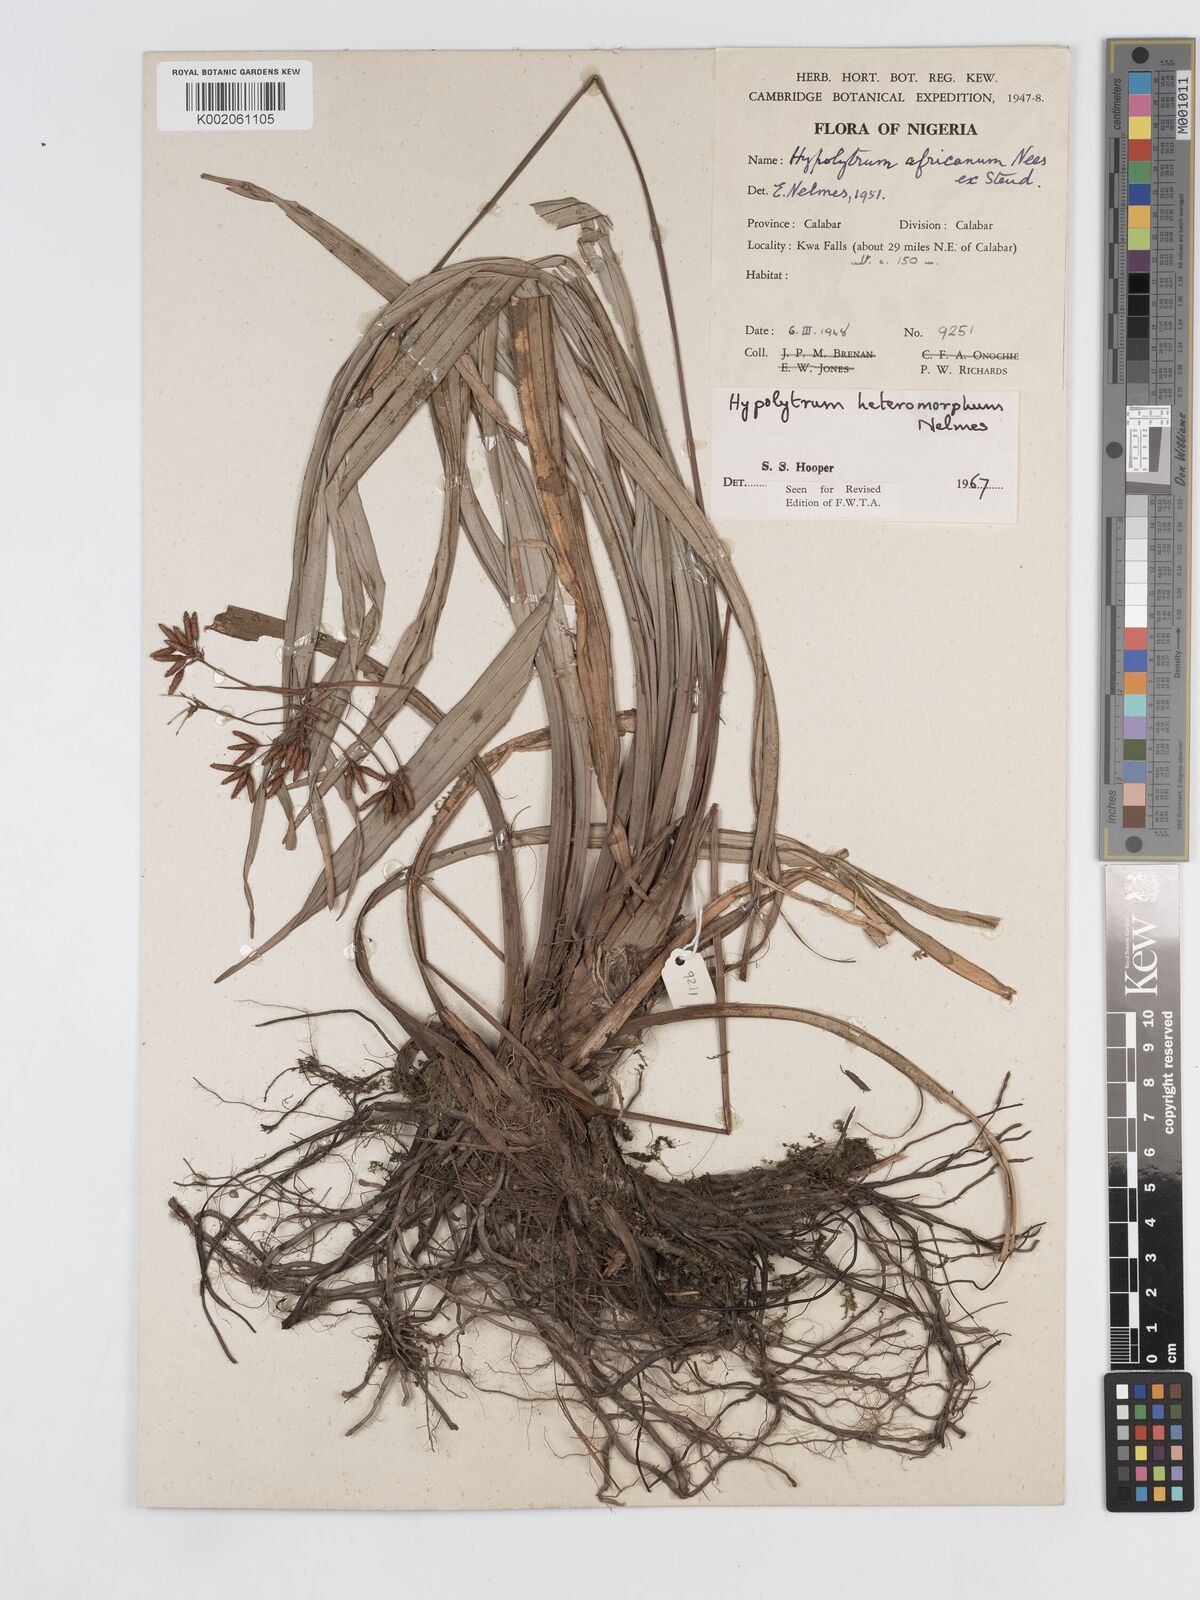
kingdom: Plantae
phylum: Tracheophyta
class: Liliopsida
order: Poales
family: Cyperaceae
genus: Hypolytrum
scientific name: Hypolytrum heteromorphum
